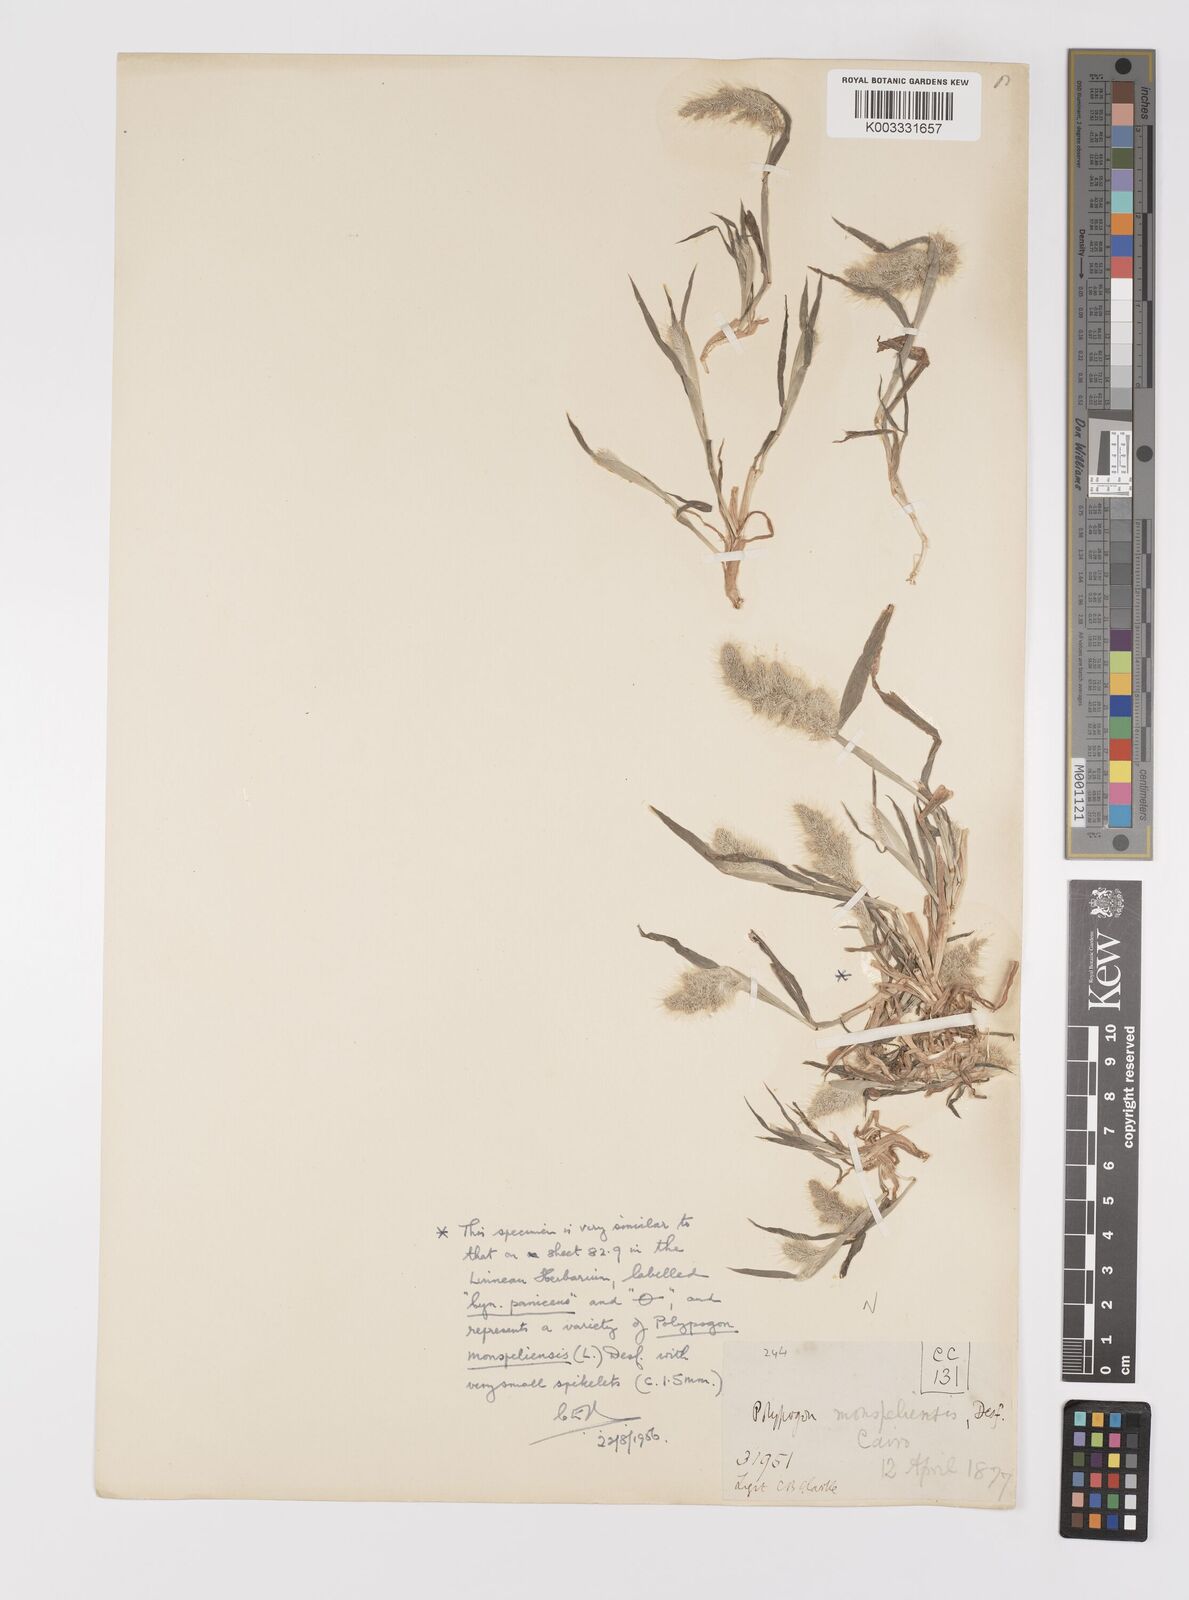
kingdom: Plantae
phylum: Tracheophyta
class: Liliopsida
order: Poales
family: Poaceae
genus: Polypogon
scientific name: Polypogon monspeliensis
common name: Annual rabbitsfoot grass
